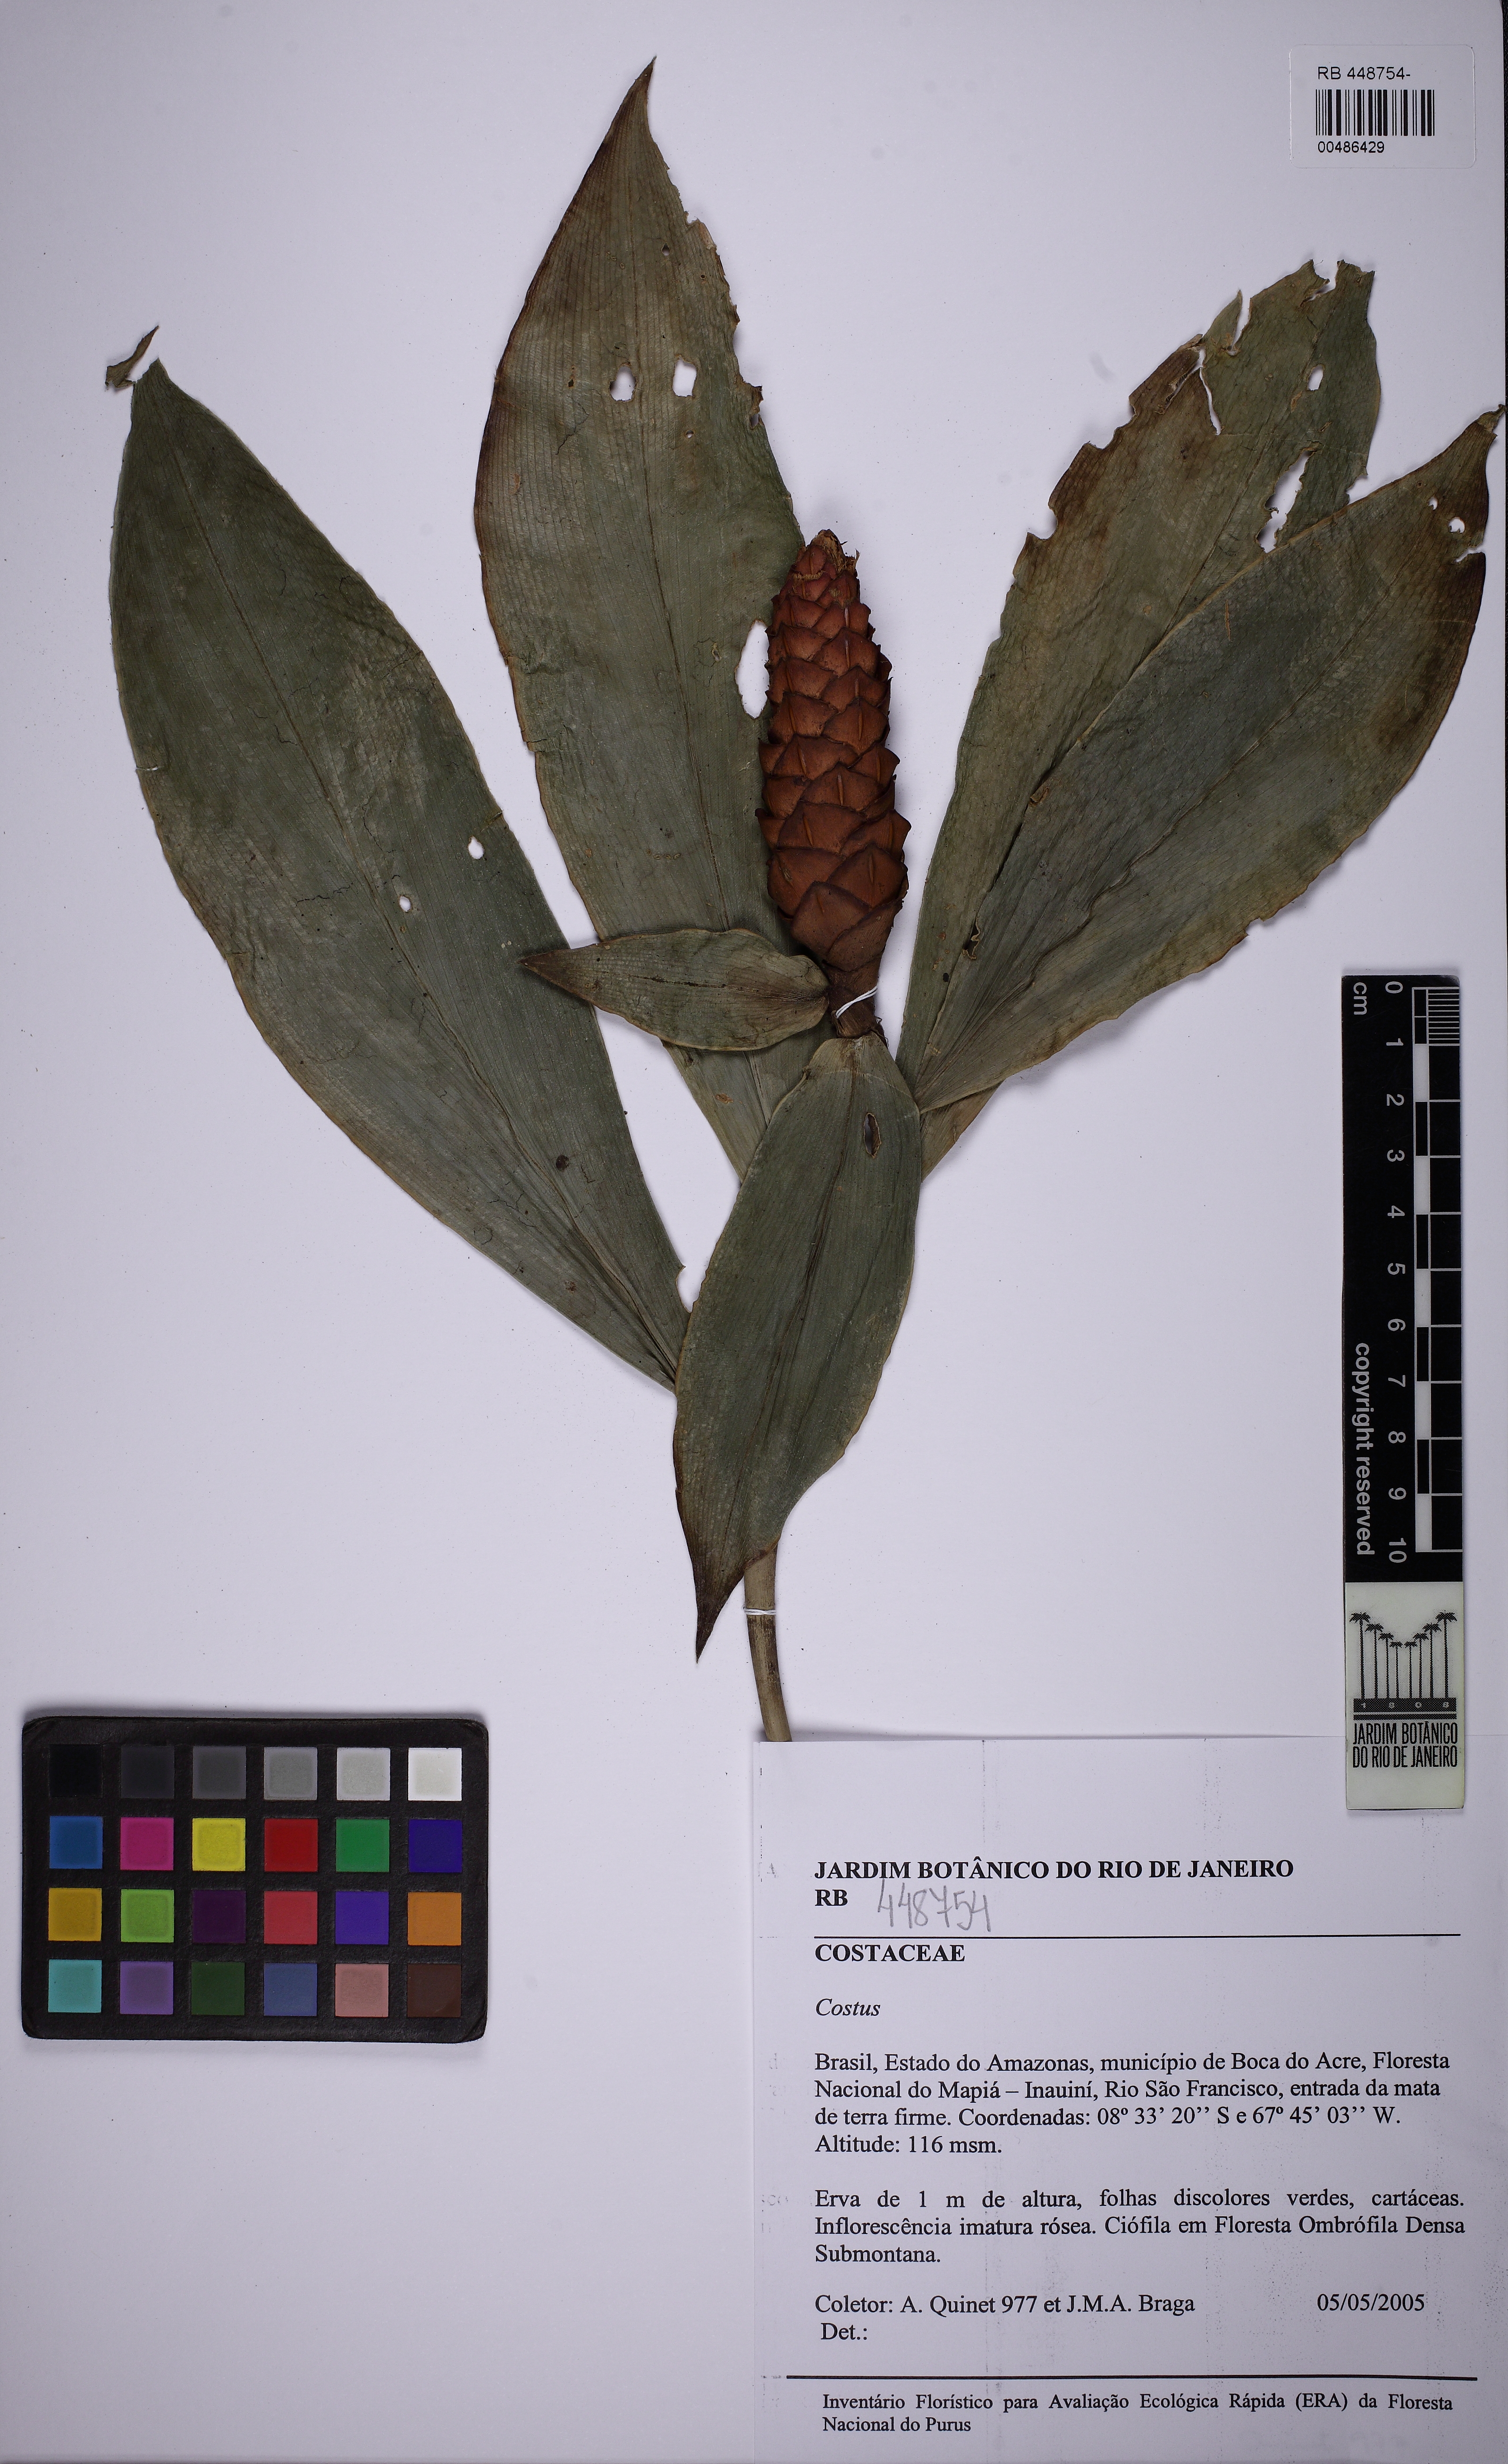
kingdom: Plantae
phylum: Tracheophyta
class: Liliopsida
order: Zingiberales
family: Costaceae
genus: Costus
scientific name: Costus scaber
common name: Spiral head ginger
